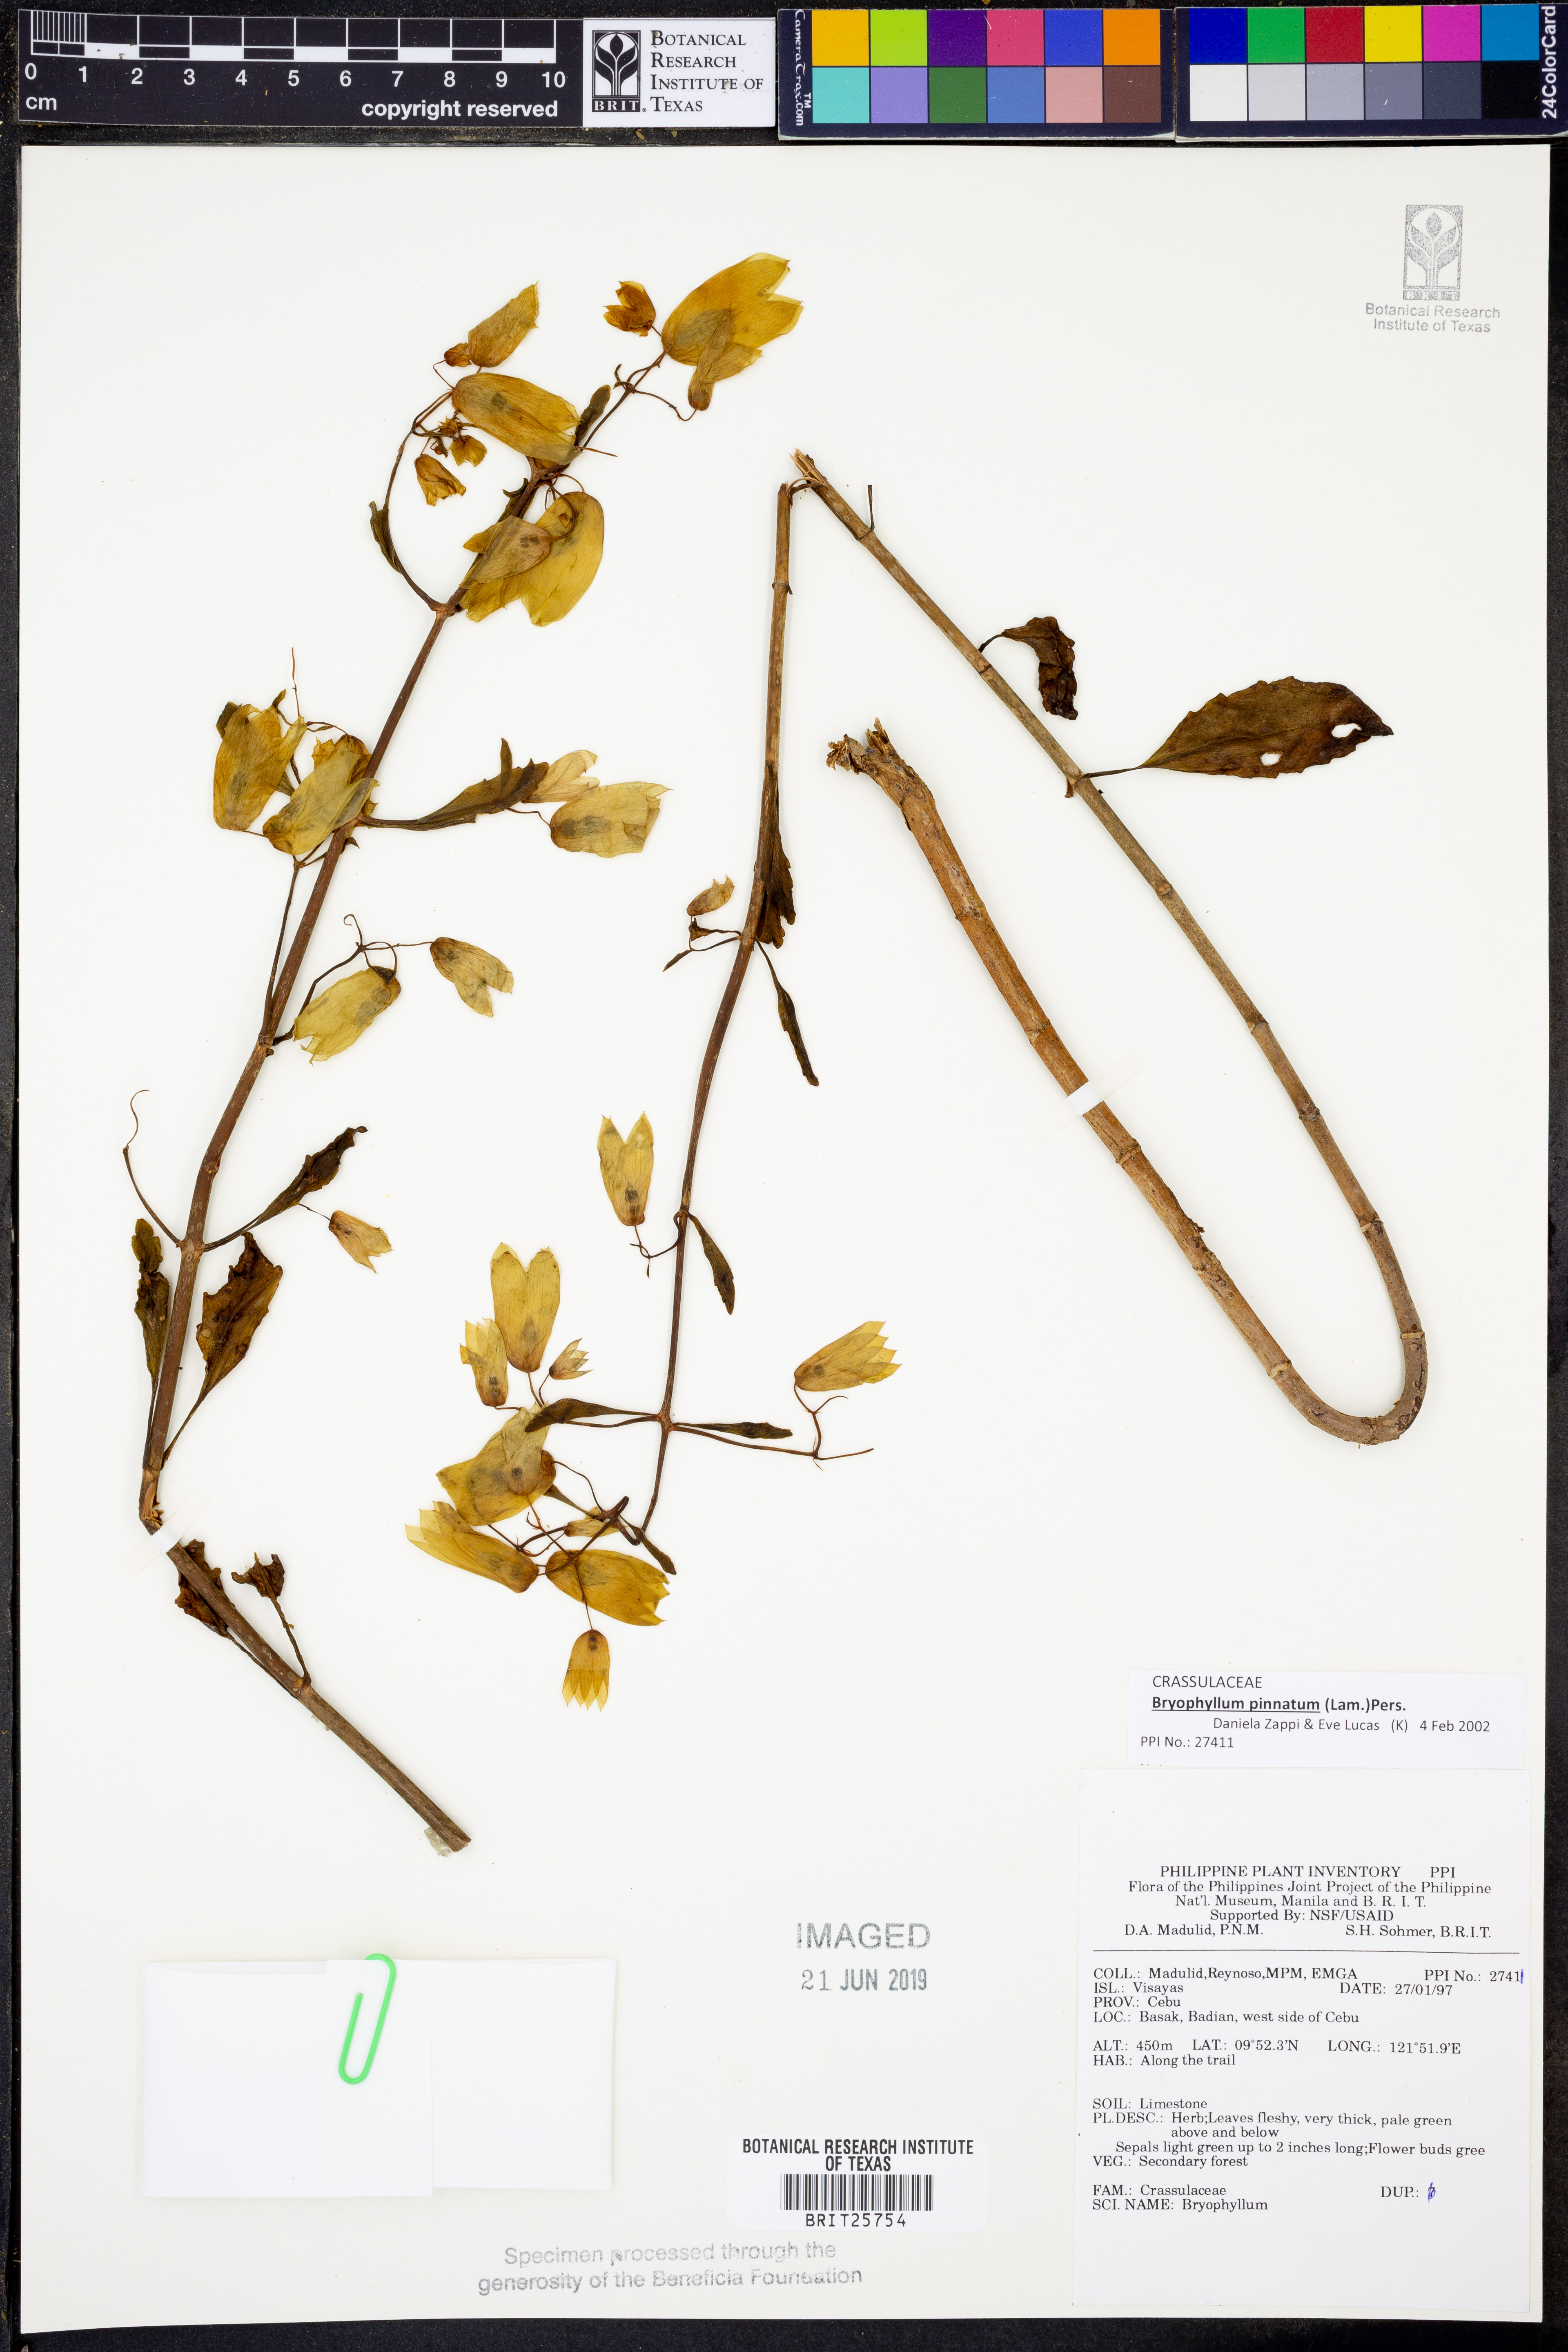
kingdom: Plantae
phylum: Tracheophyta
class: Magnoliopsida
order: Saxifragales
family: Crassulaceae
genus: Kalanchoe
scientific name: Kalanchoe pinnata
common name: Cathedral bells
